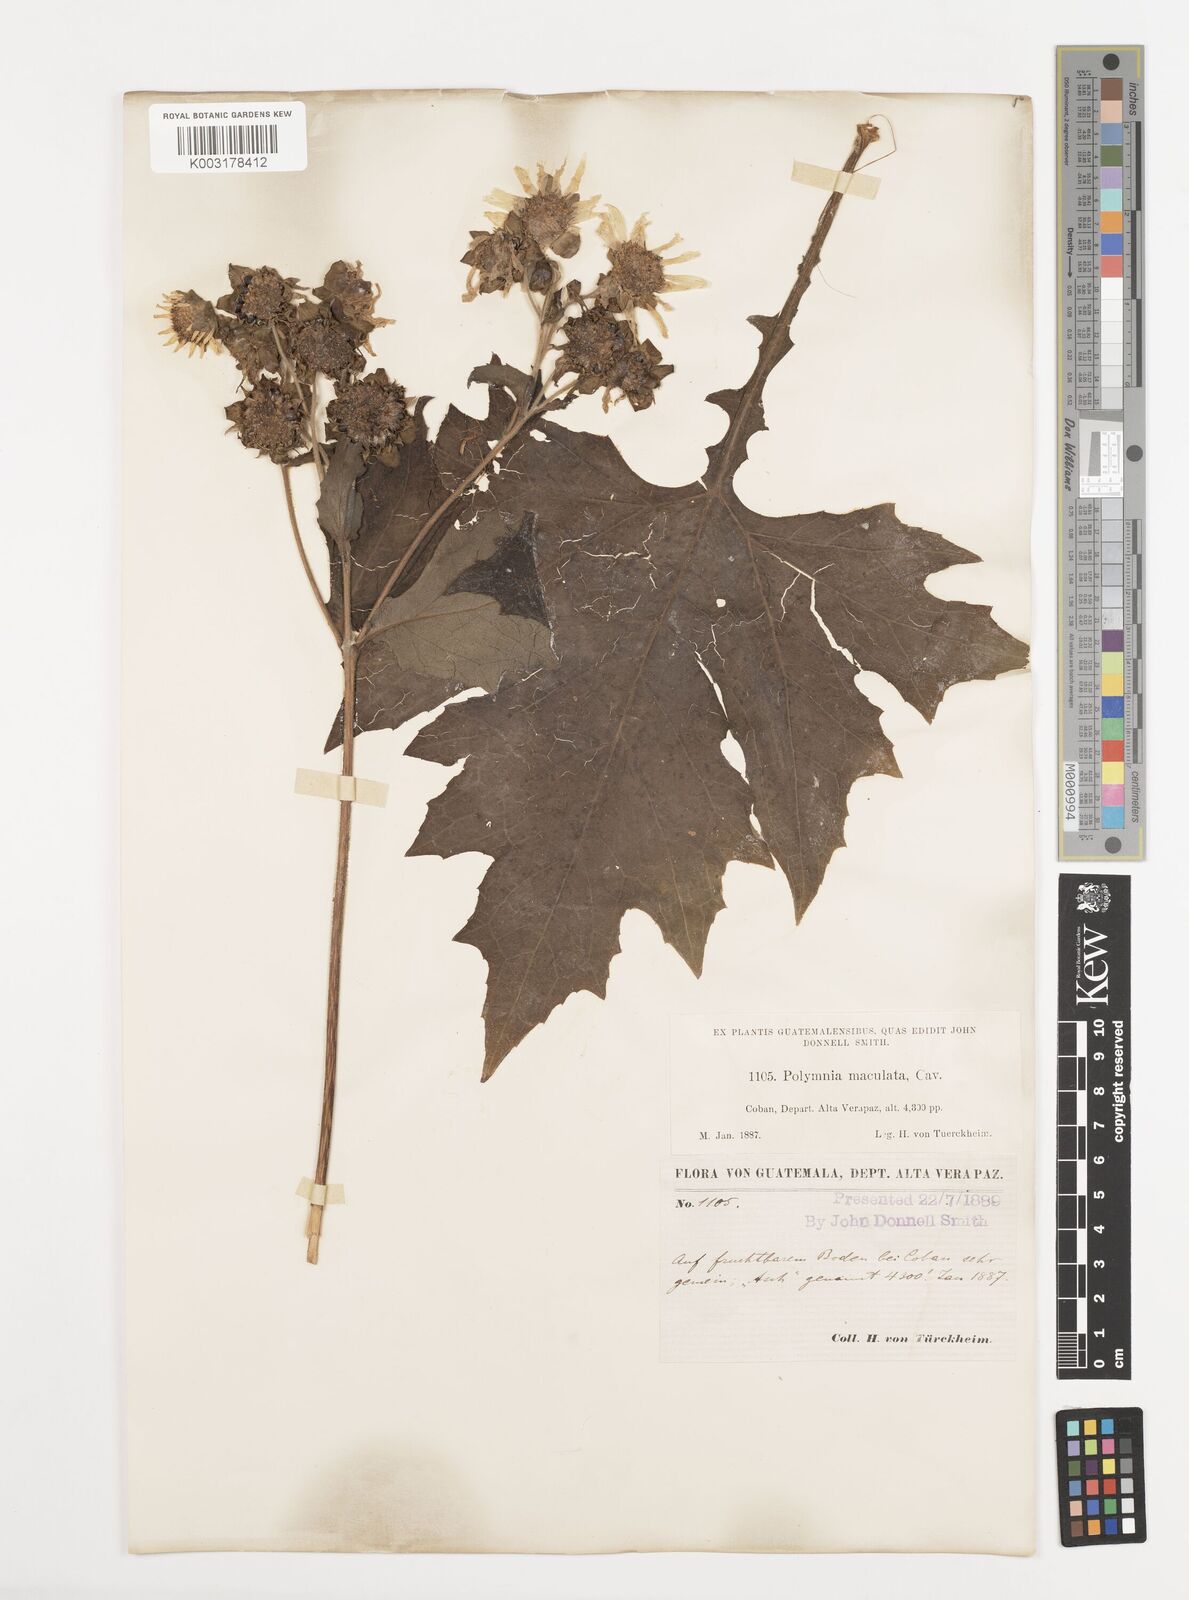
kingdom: Plantae
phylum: Tracheophyta
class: Magnoliopsida
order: Asterales
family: Asteraceae
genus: Smallanthus
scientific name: Smallanthus maculatus
